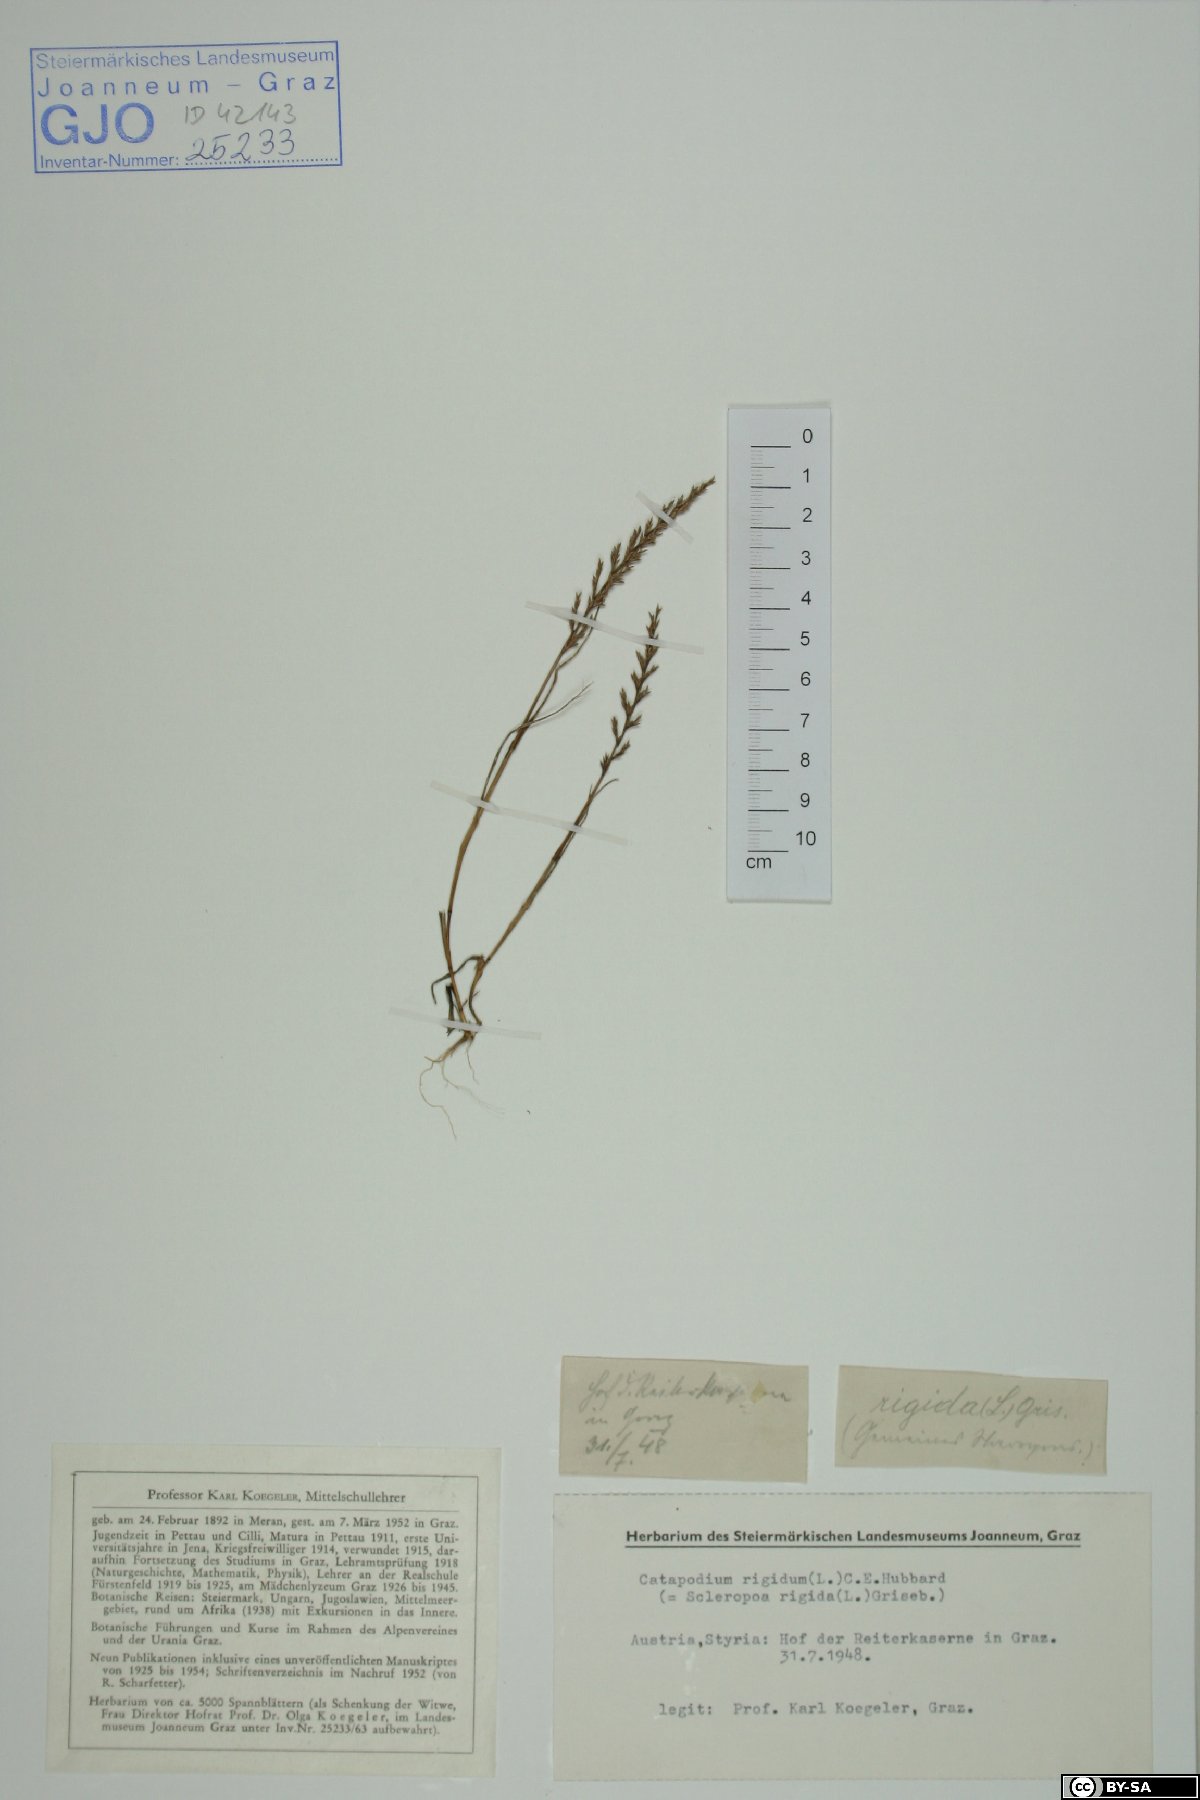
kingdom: Plantae
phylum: Tracheophyta
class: Liliopsida
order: Poales
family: Poaceae
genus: Catapodium
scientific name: Catapodium rigidum
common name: Fern-grass
